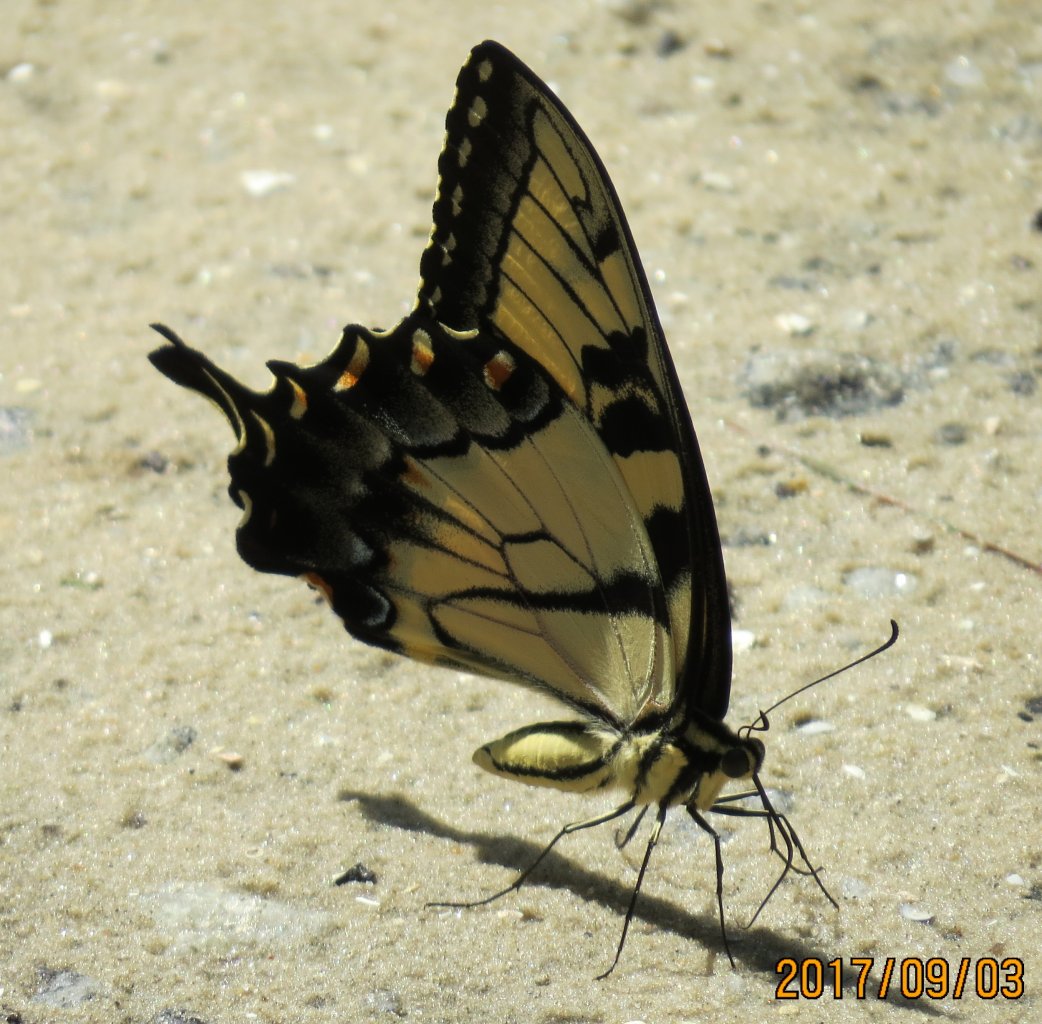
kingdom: Animalia
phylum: Arthropoda
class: Insecta
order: Lepidoptera
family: Papilionidae
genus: Pterourus
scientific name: Pterourus glaucus
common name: Eastern Tiger Swallowtail
